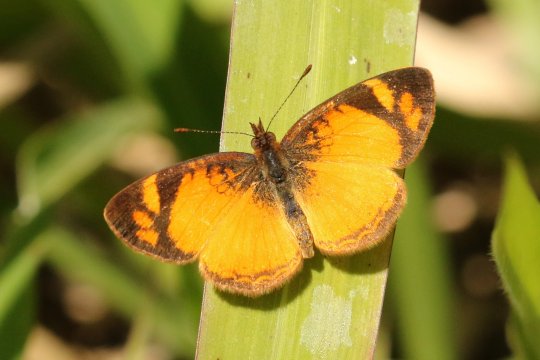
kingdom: Animalia
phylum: Arthropoda
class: Insecta
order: Lepidoptera
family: Nymphalidae
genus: Tegosa
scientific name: Tegosa claudina
